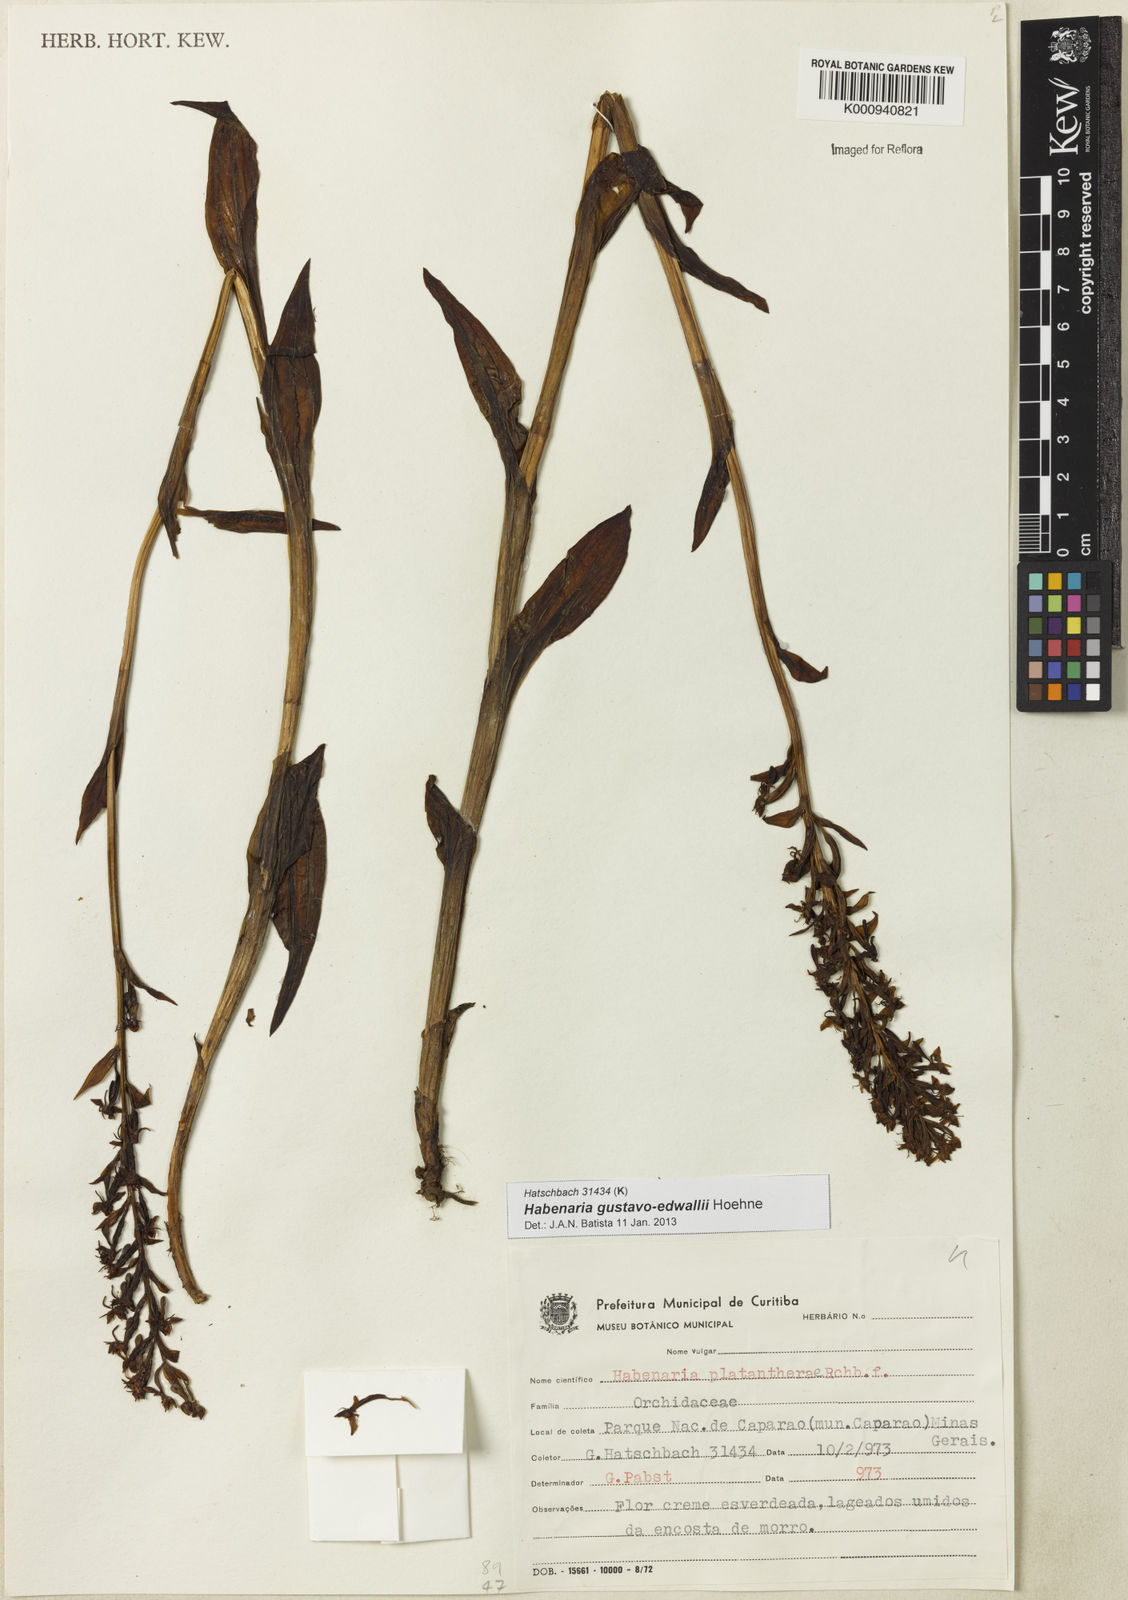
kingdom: Plantae
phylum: Tracheophyta
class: Liliopsida
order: Asparagales
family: Orchidaceae
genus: Habenaria
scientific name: Habenaria gustavo-edwallii
